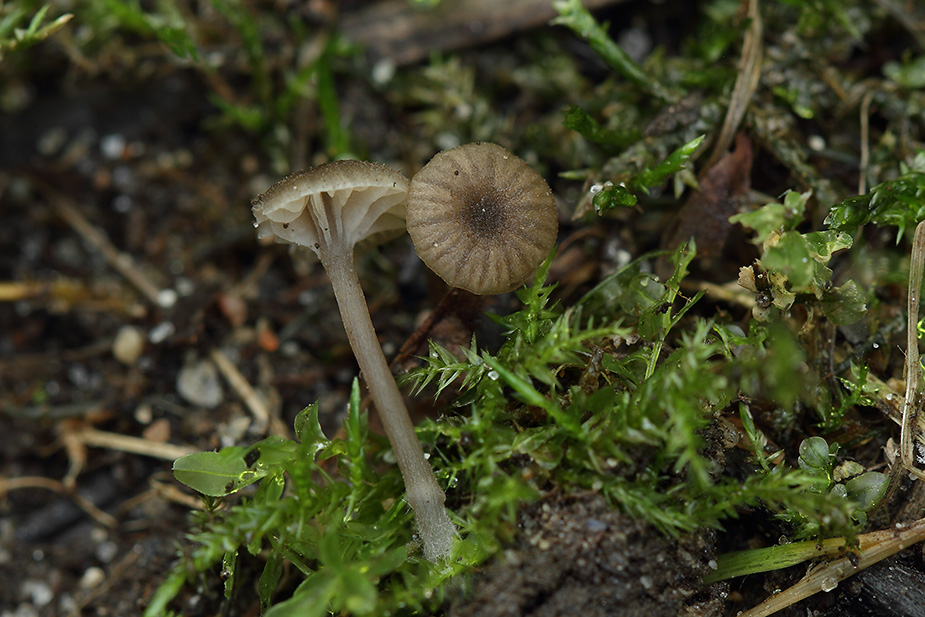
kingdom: Fungi
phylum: Basidiomycota
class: Agaricomycetes
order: Agaricales
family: Entolomataceae
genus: Entoloma
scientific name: Entoloma rhodocylix
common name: fjernbladet rødblad
